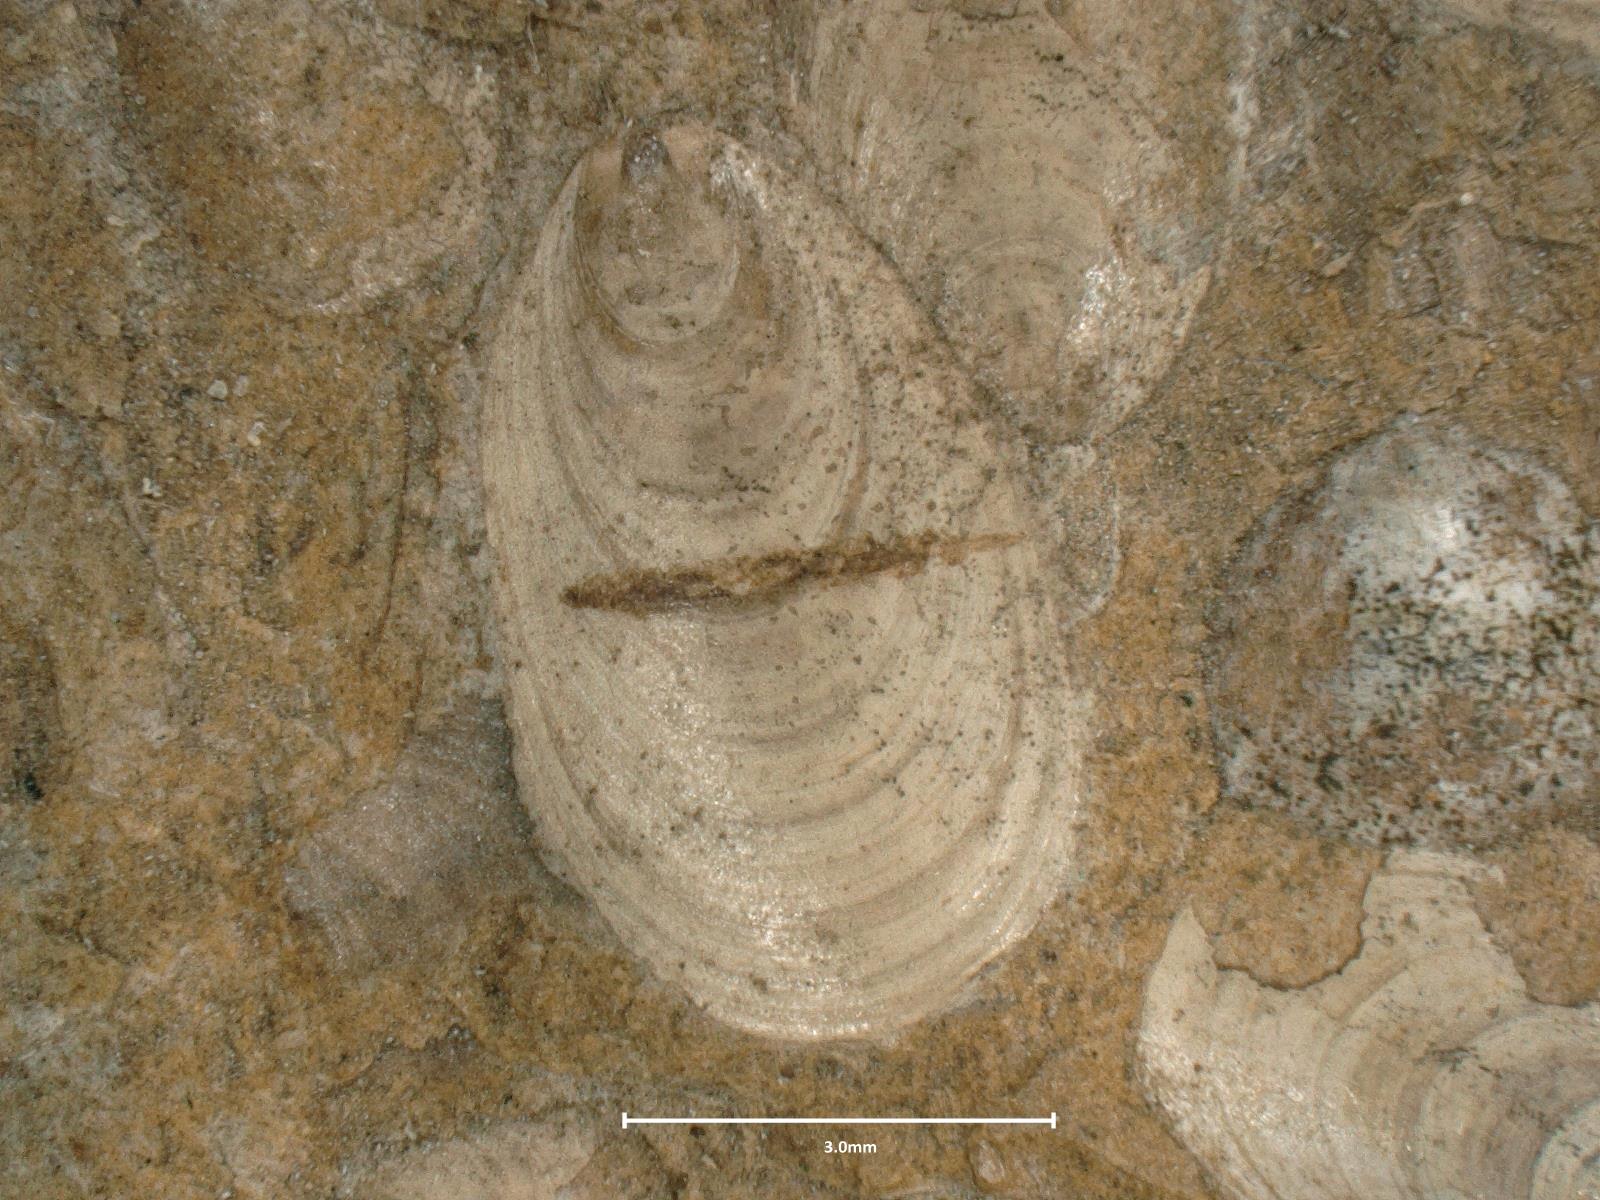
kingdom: Animalia
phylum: Brachiopoda
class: Lingulata
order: Lingulida
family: Lingulidae
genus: Lingularia
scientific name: Lingularia
